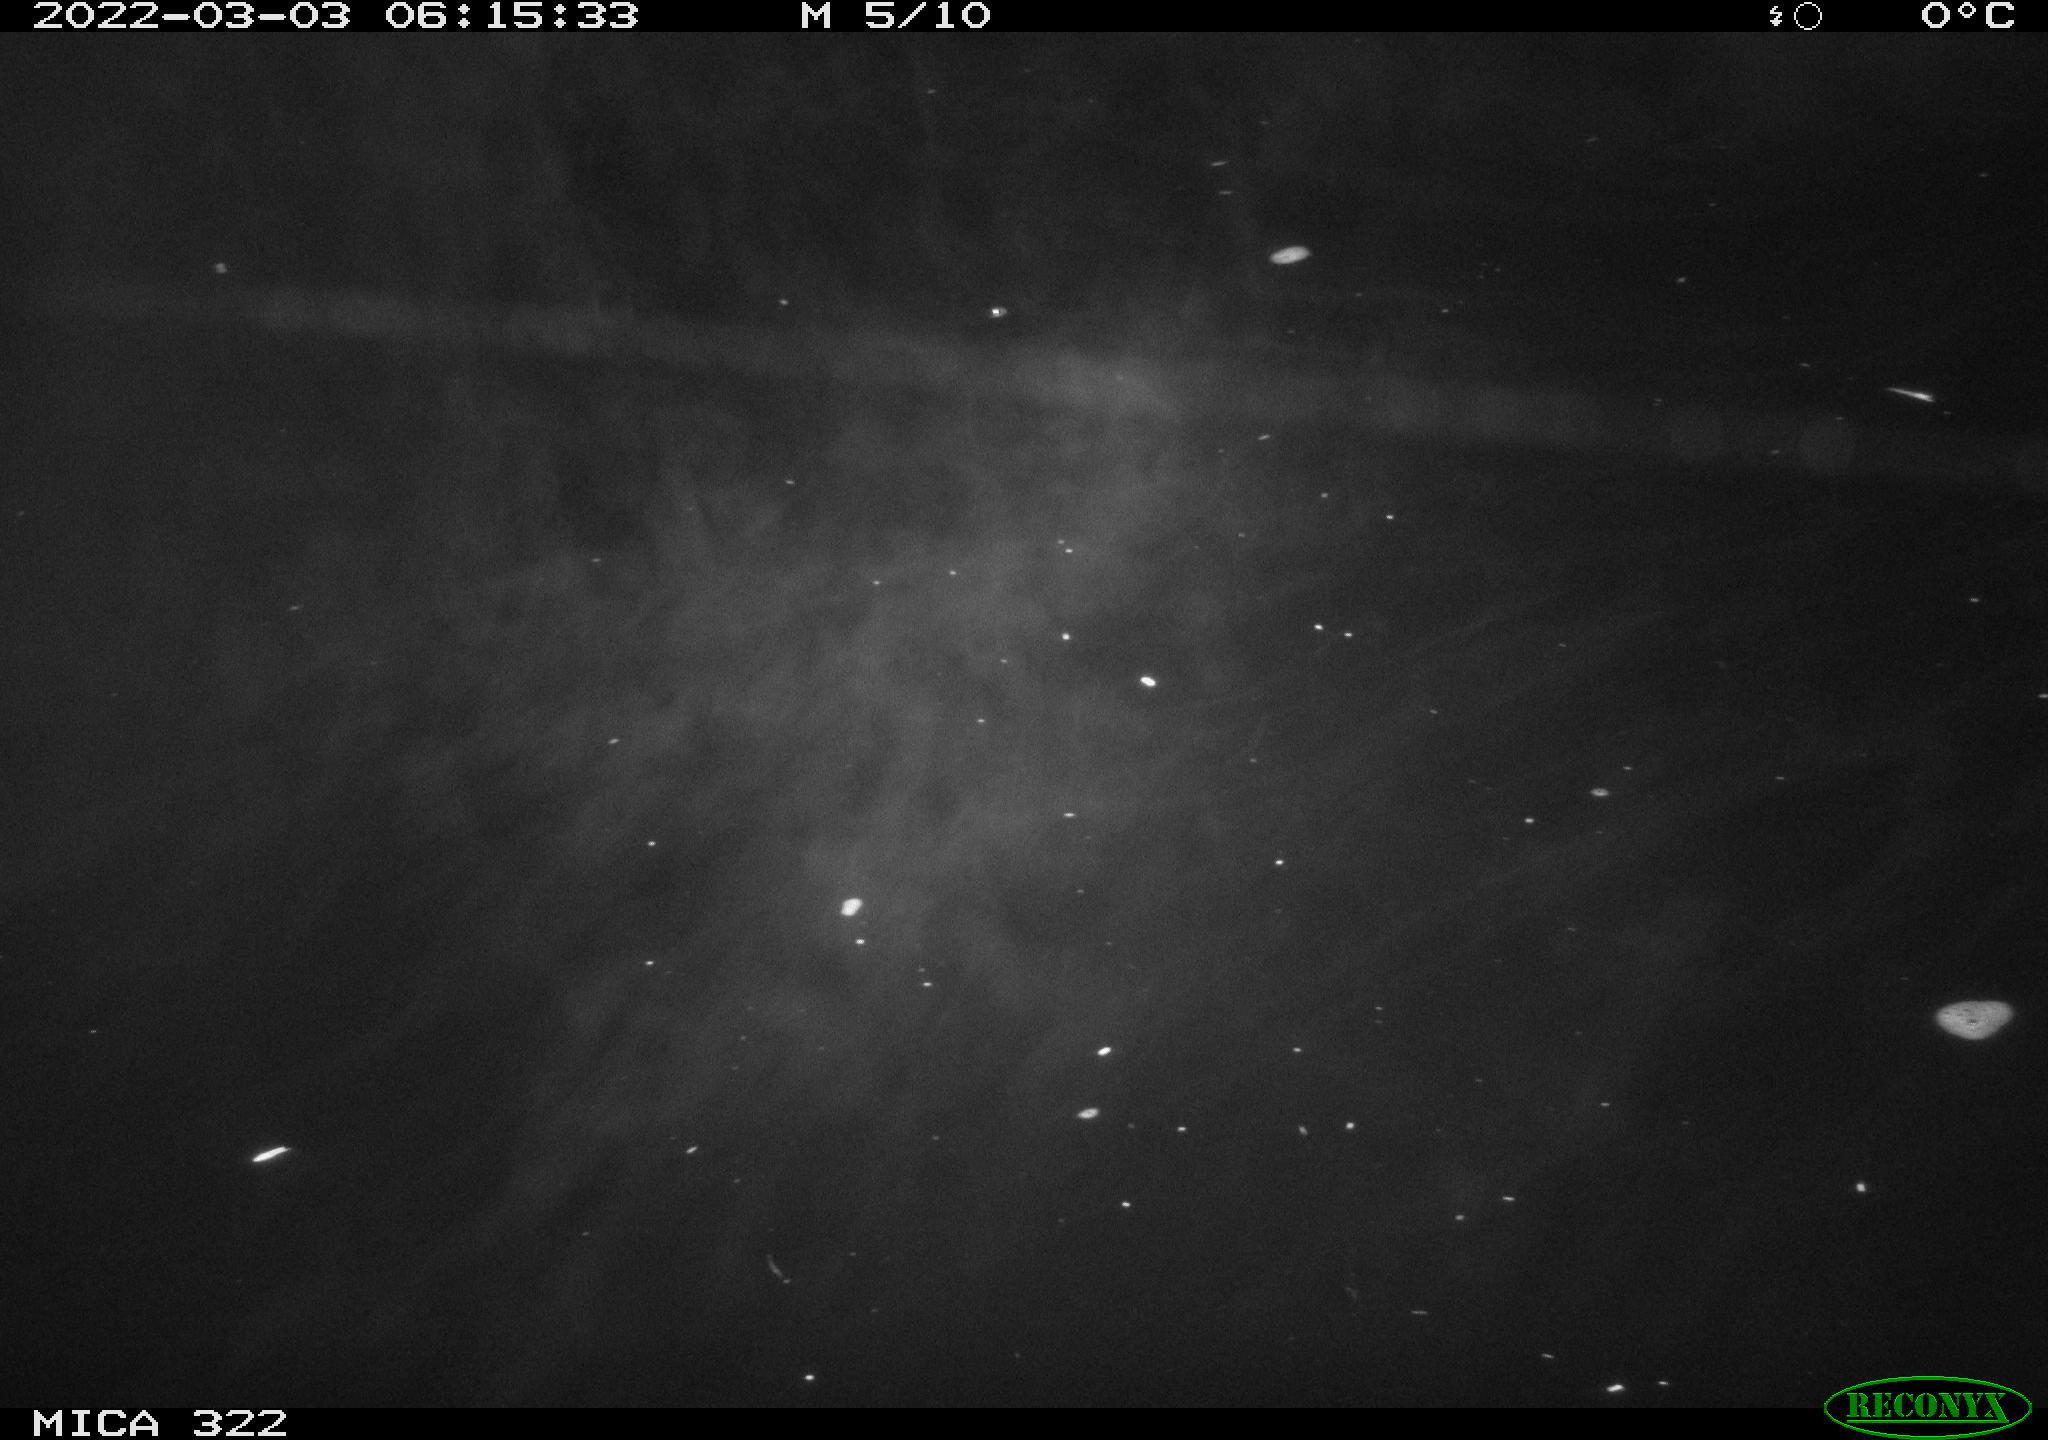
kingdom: Animalia
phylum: Chordata
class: Aves
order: Anseriformes
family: Anatidae
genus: Anas
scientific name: Anas platyrhynchos
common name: Mallard
